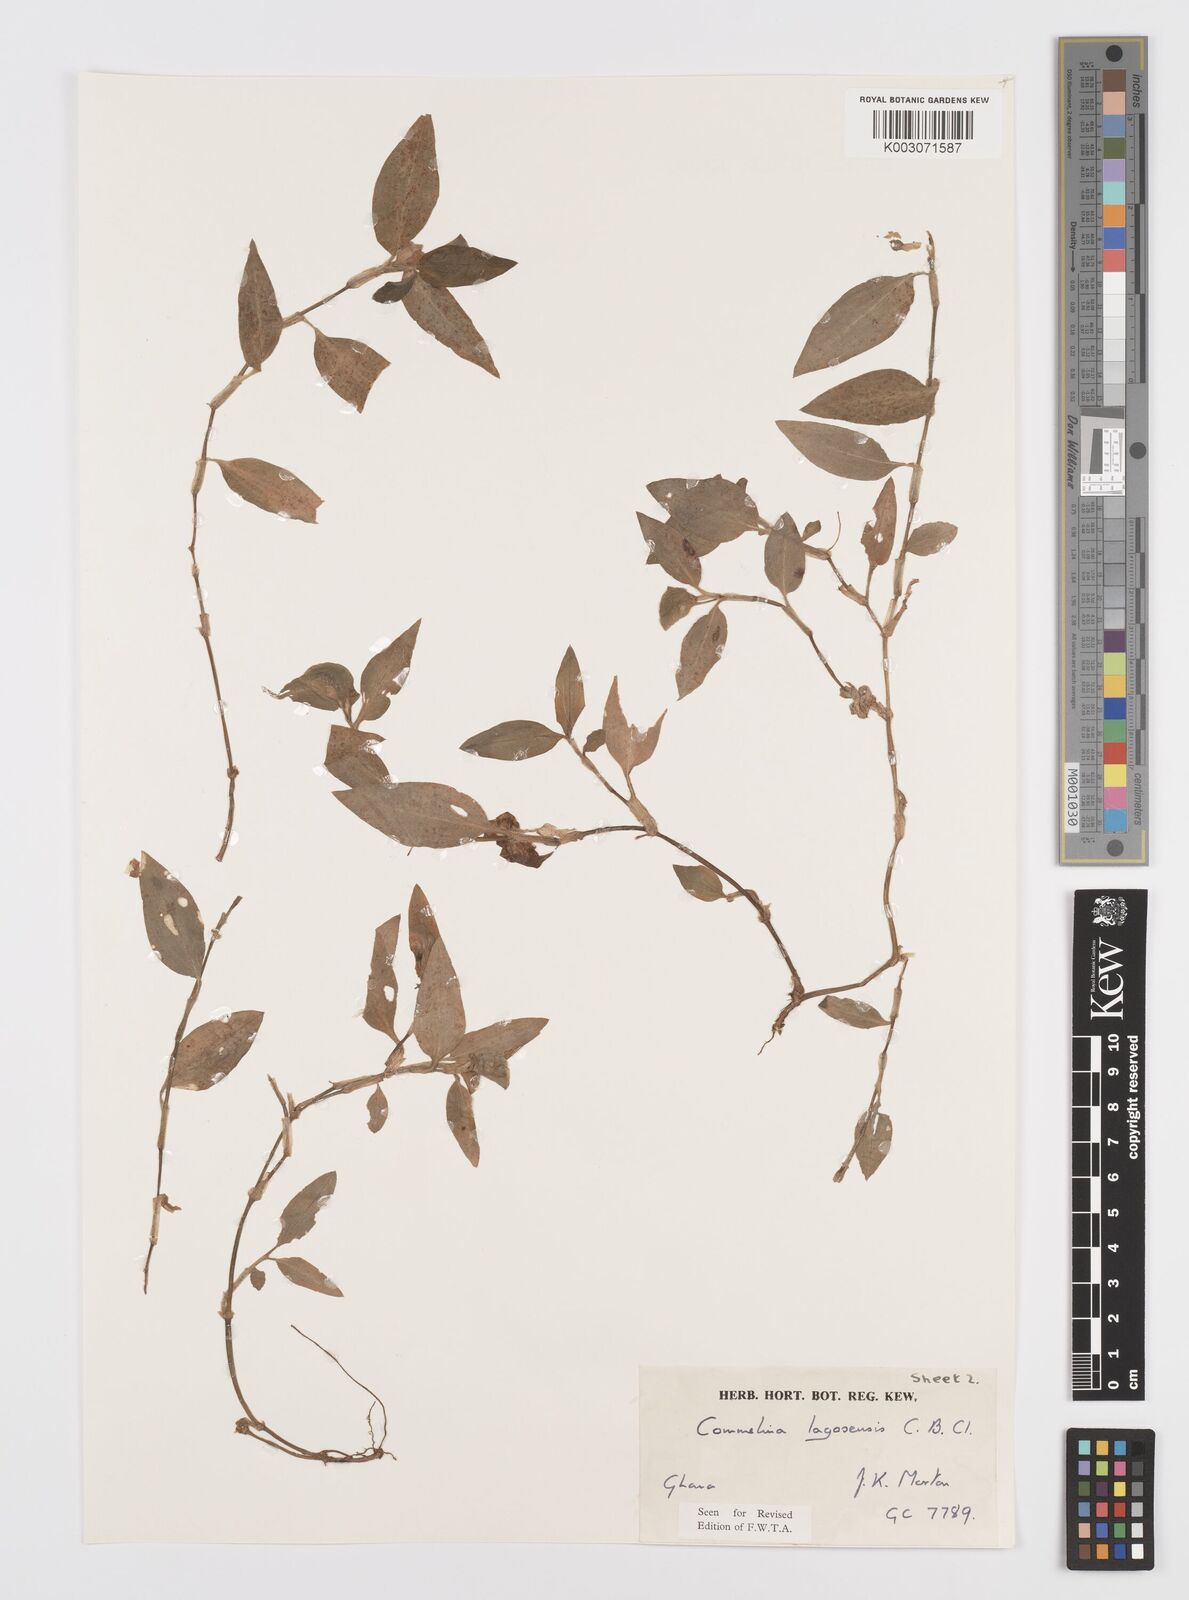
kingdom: Plantae
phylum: Tracheophyta
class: Liliopsida
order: Commelinales
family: Commelinaceae
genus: Commelina
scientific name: Commelina bracteosa
